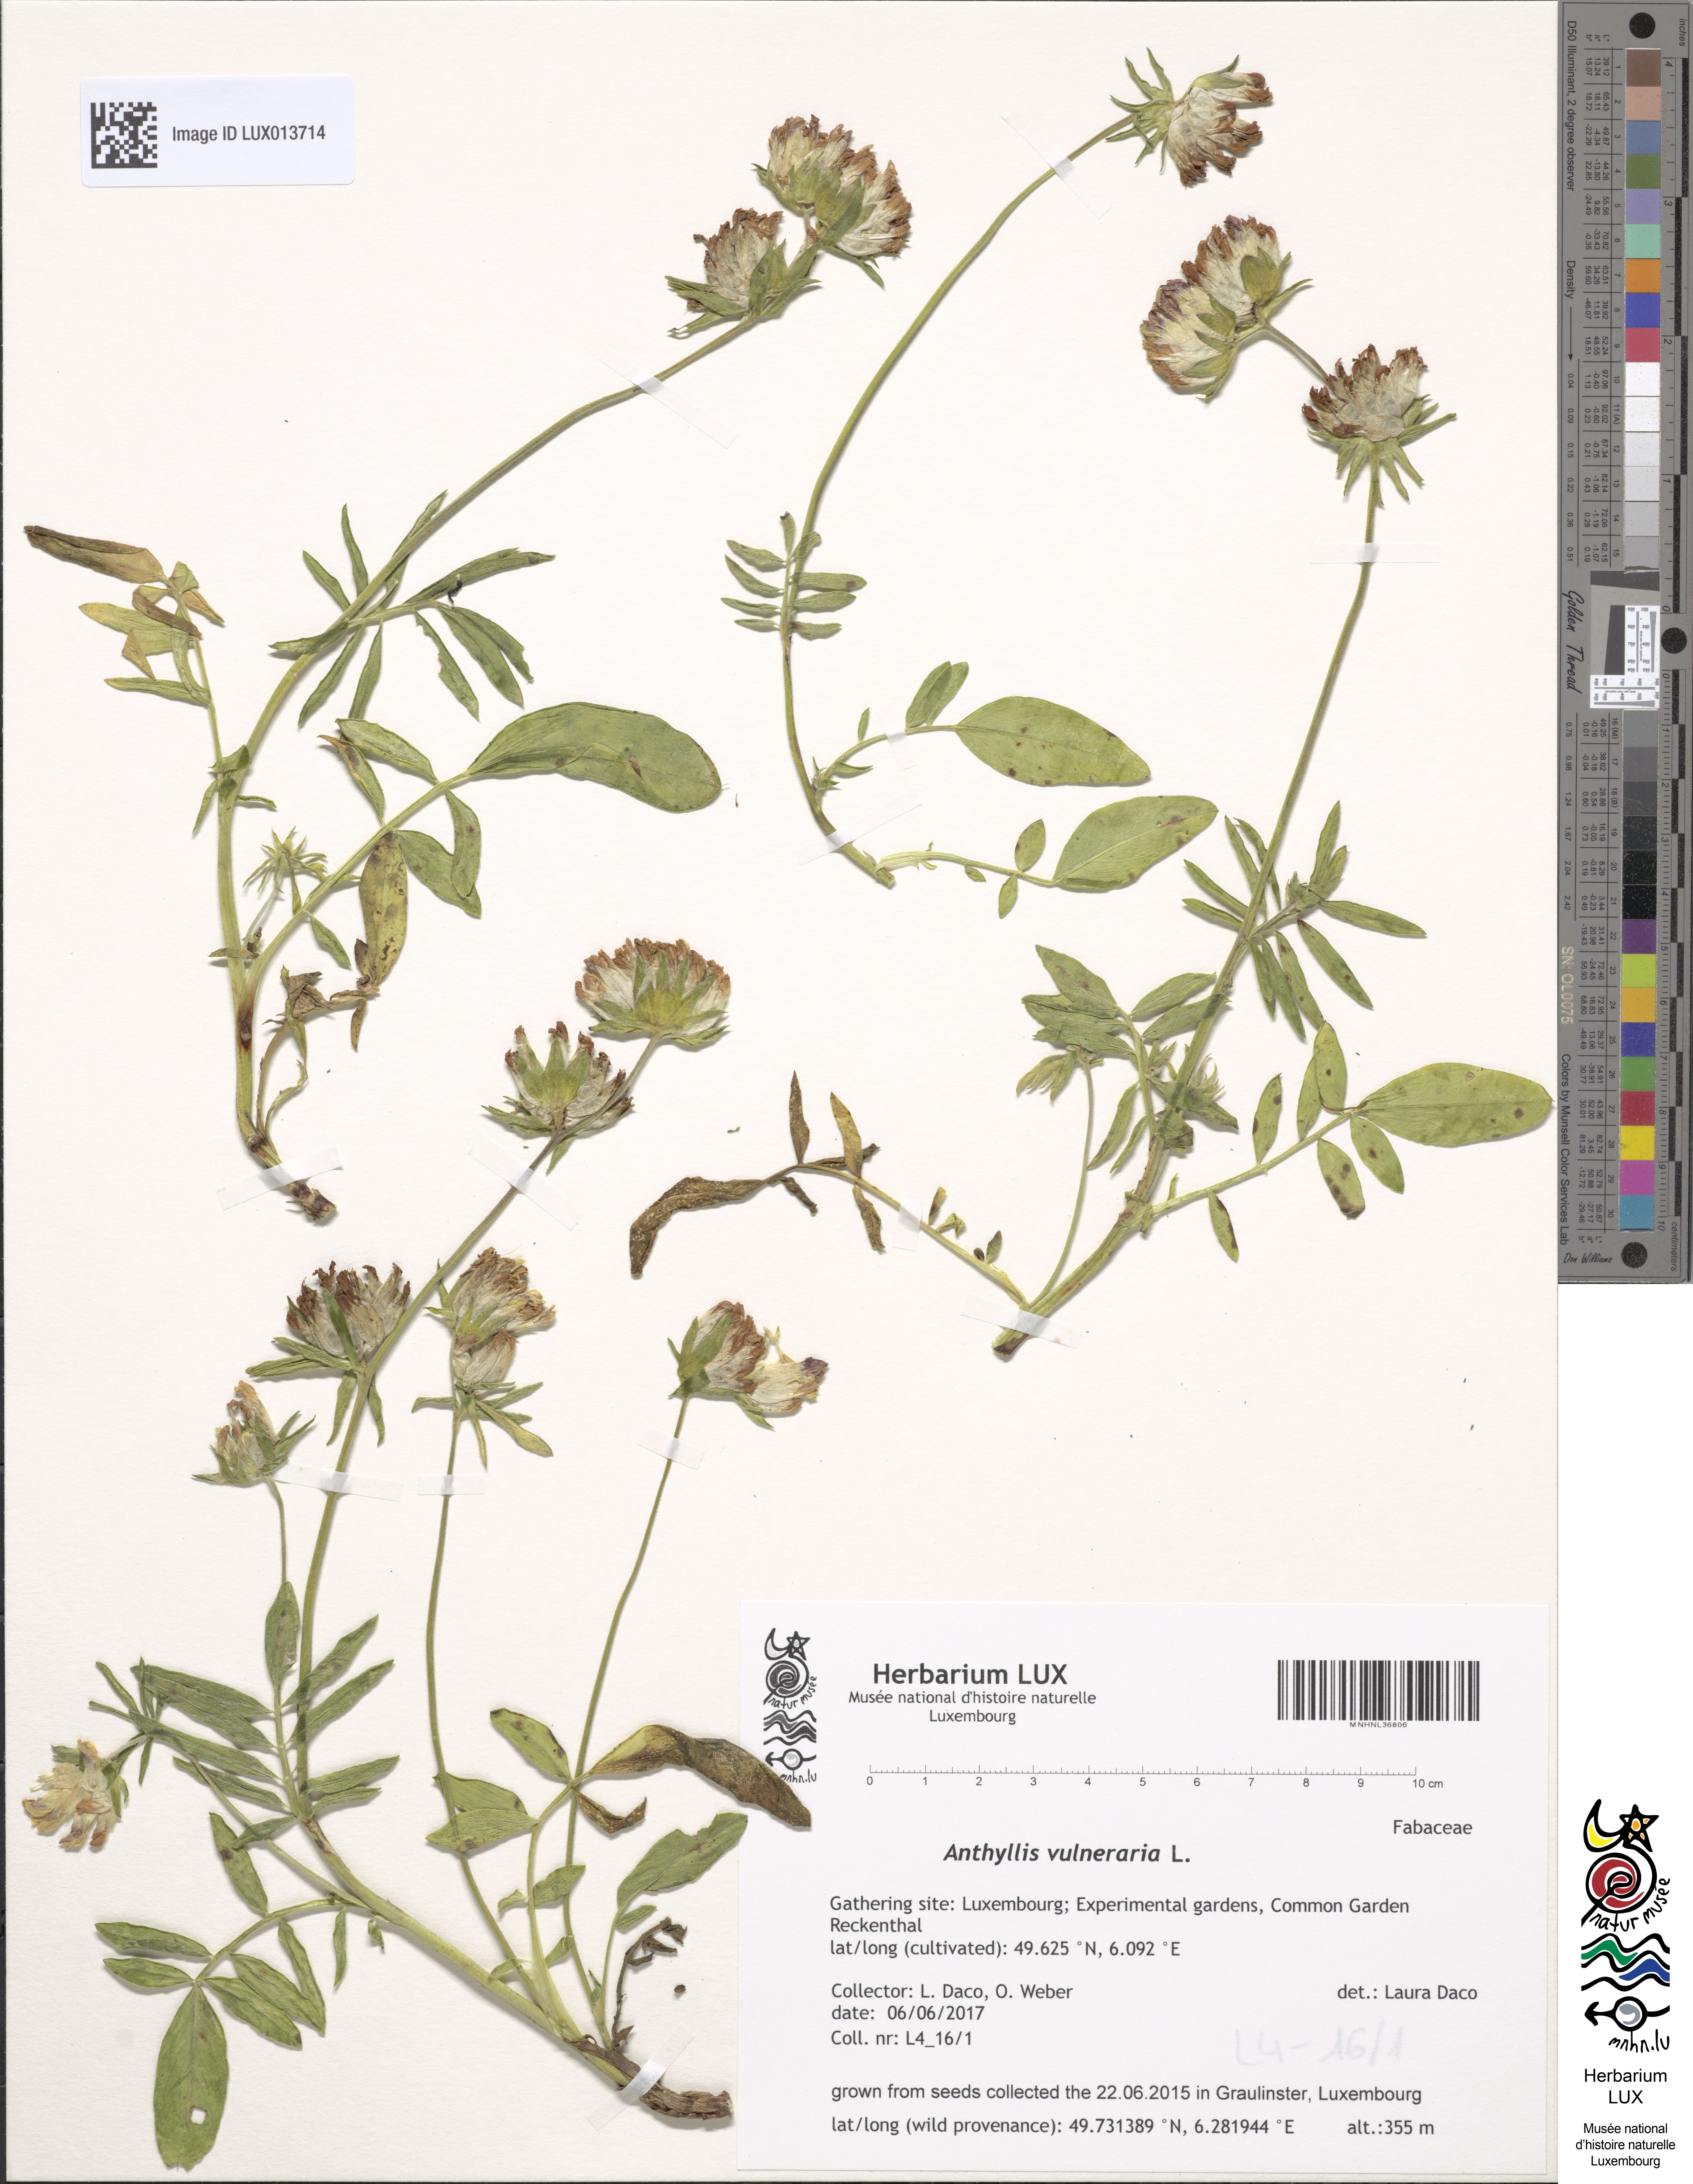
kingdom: Plantae
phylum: Tracheophyta
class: Magnoliopsida
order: Fabales
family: Fabaceae
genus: Anthyllis
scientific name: Anthyllis vulneraria
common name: Kidney vetch
